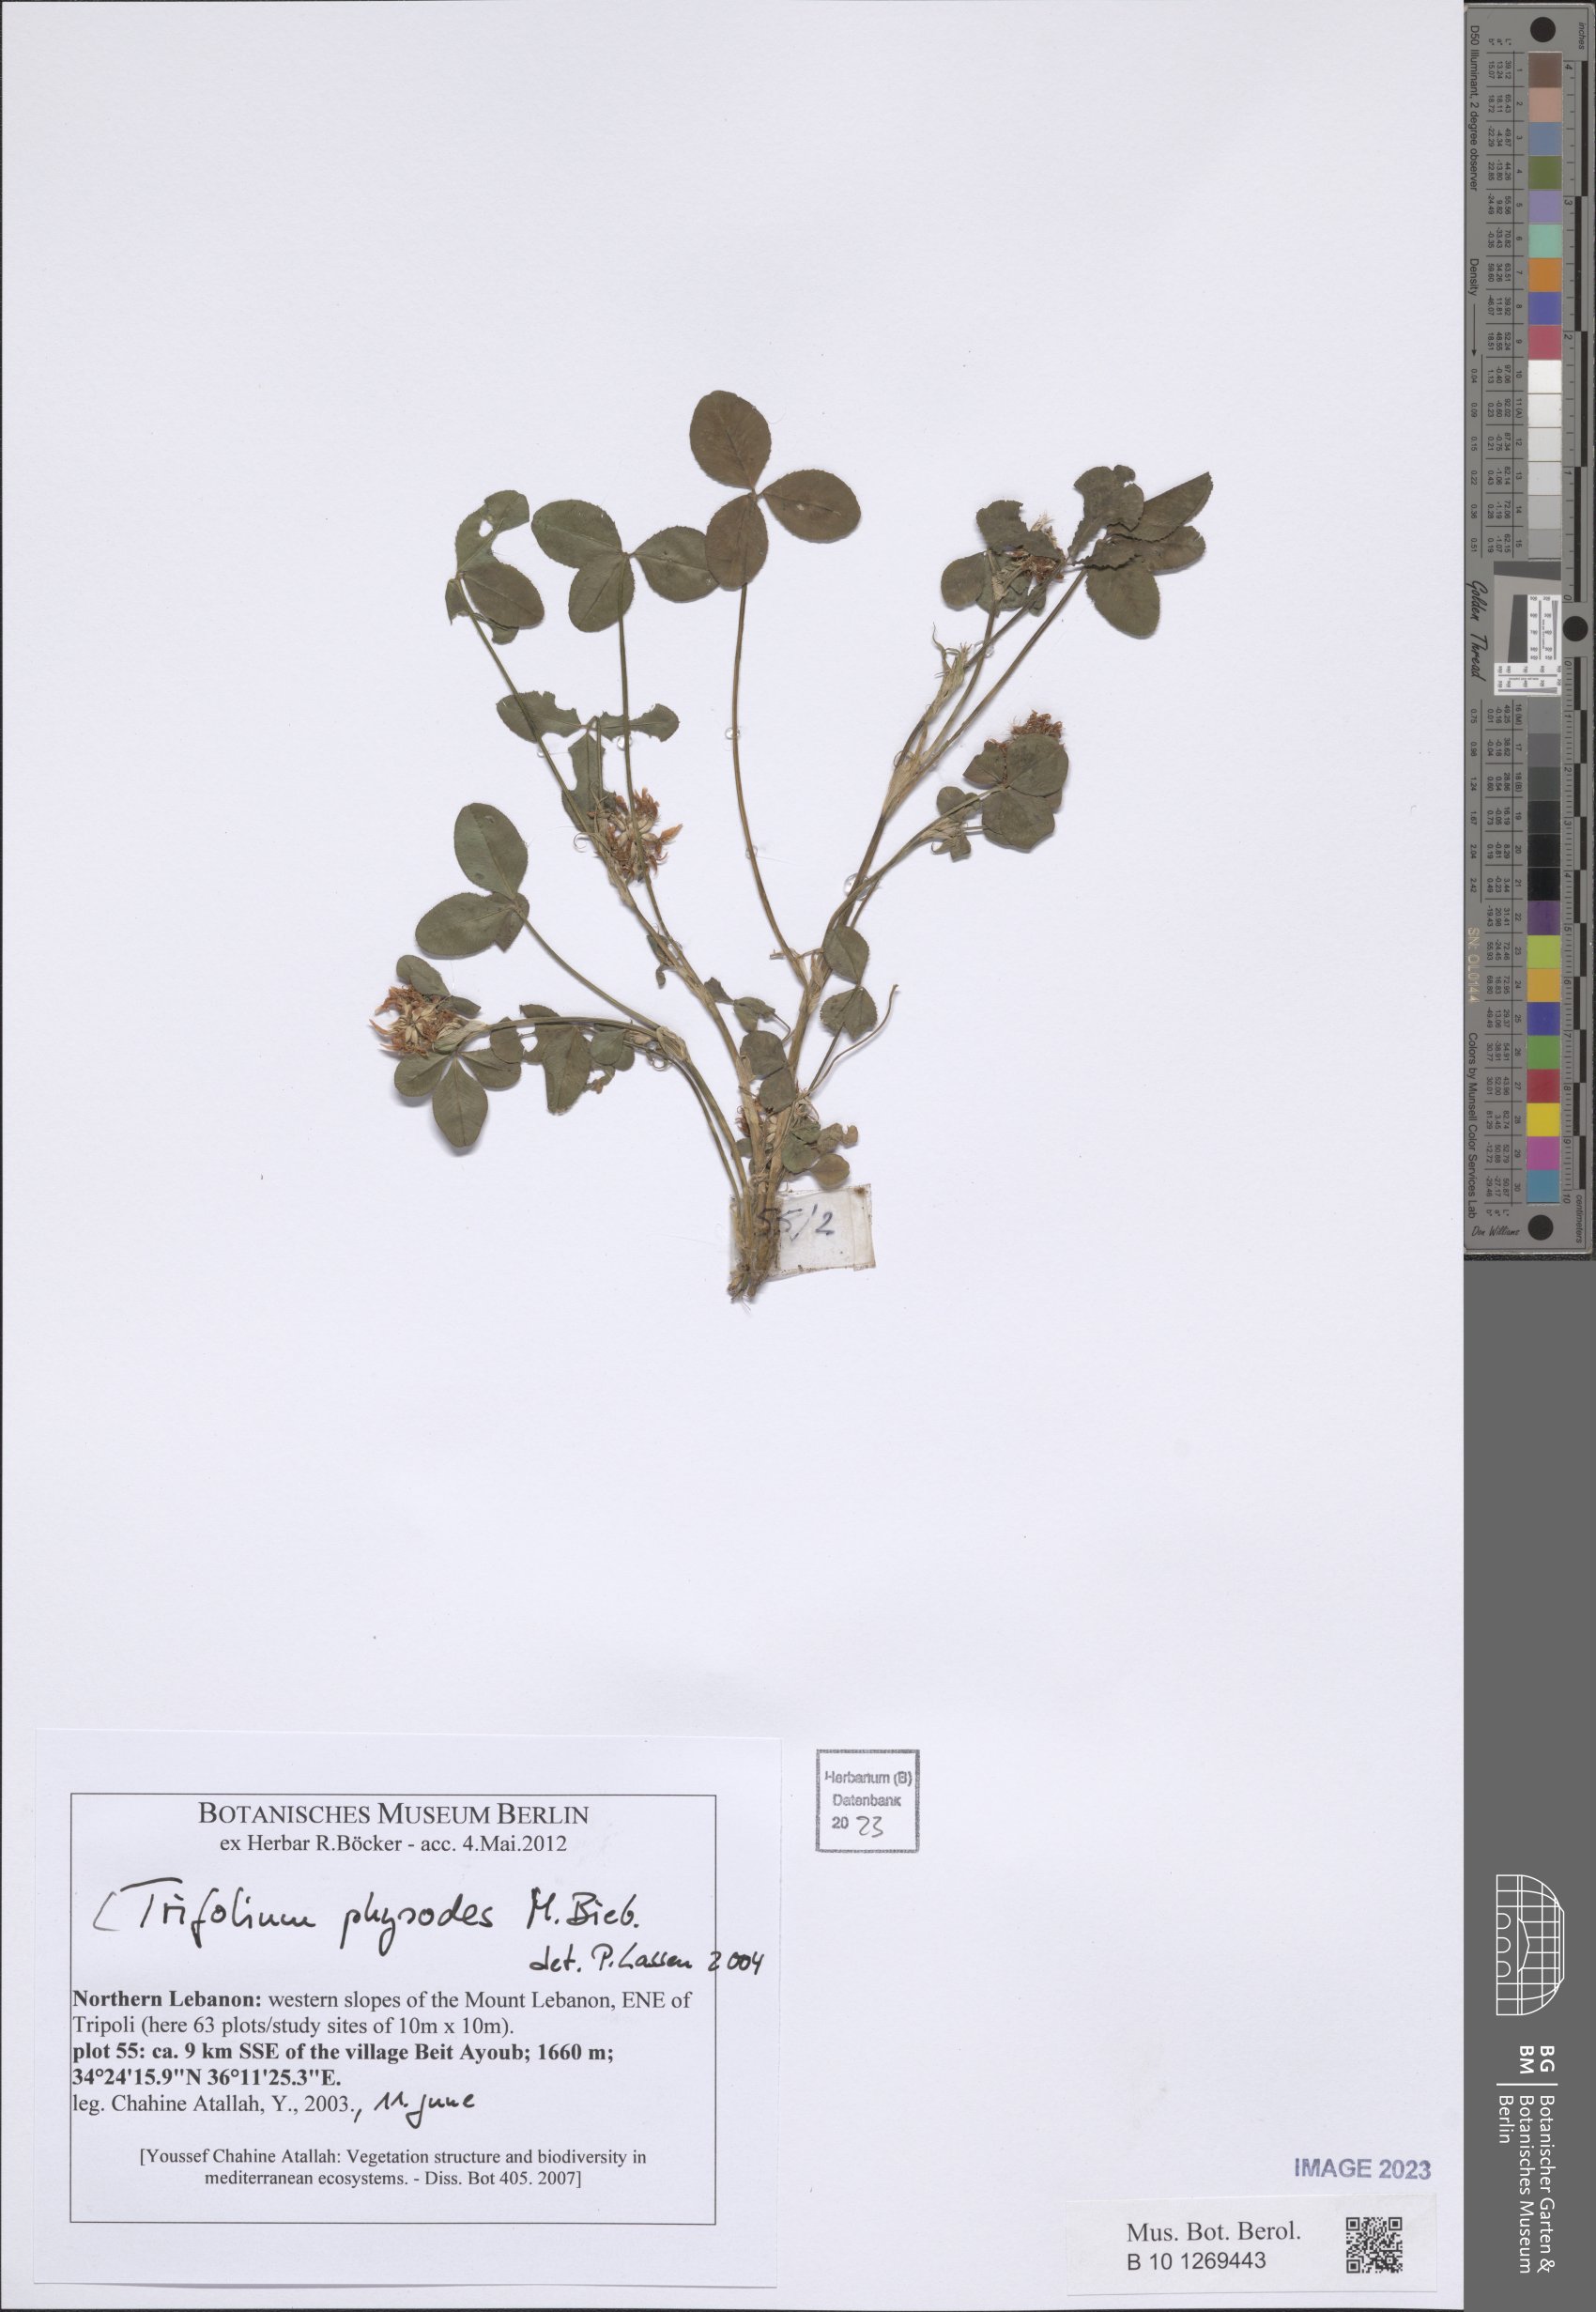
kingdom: Plantae
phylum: Tracheophyta
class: Magnoliopsida
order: Fabales
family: Fabaceae
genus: Trifolium
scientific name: Trifolium physodes
